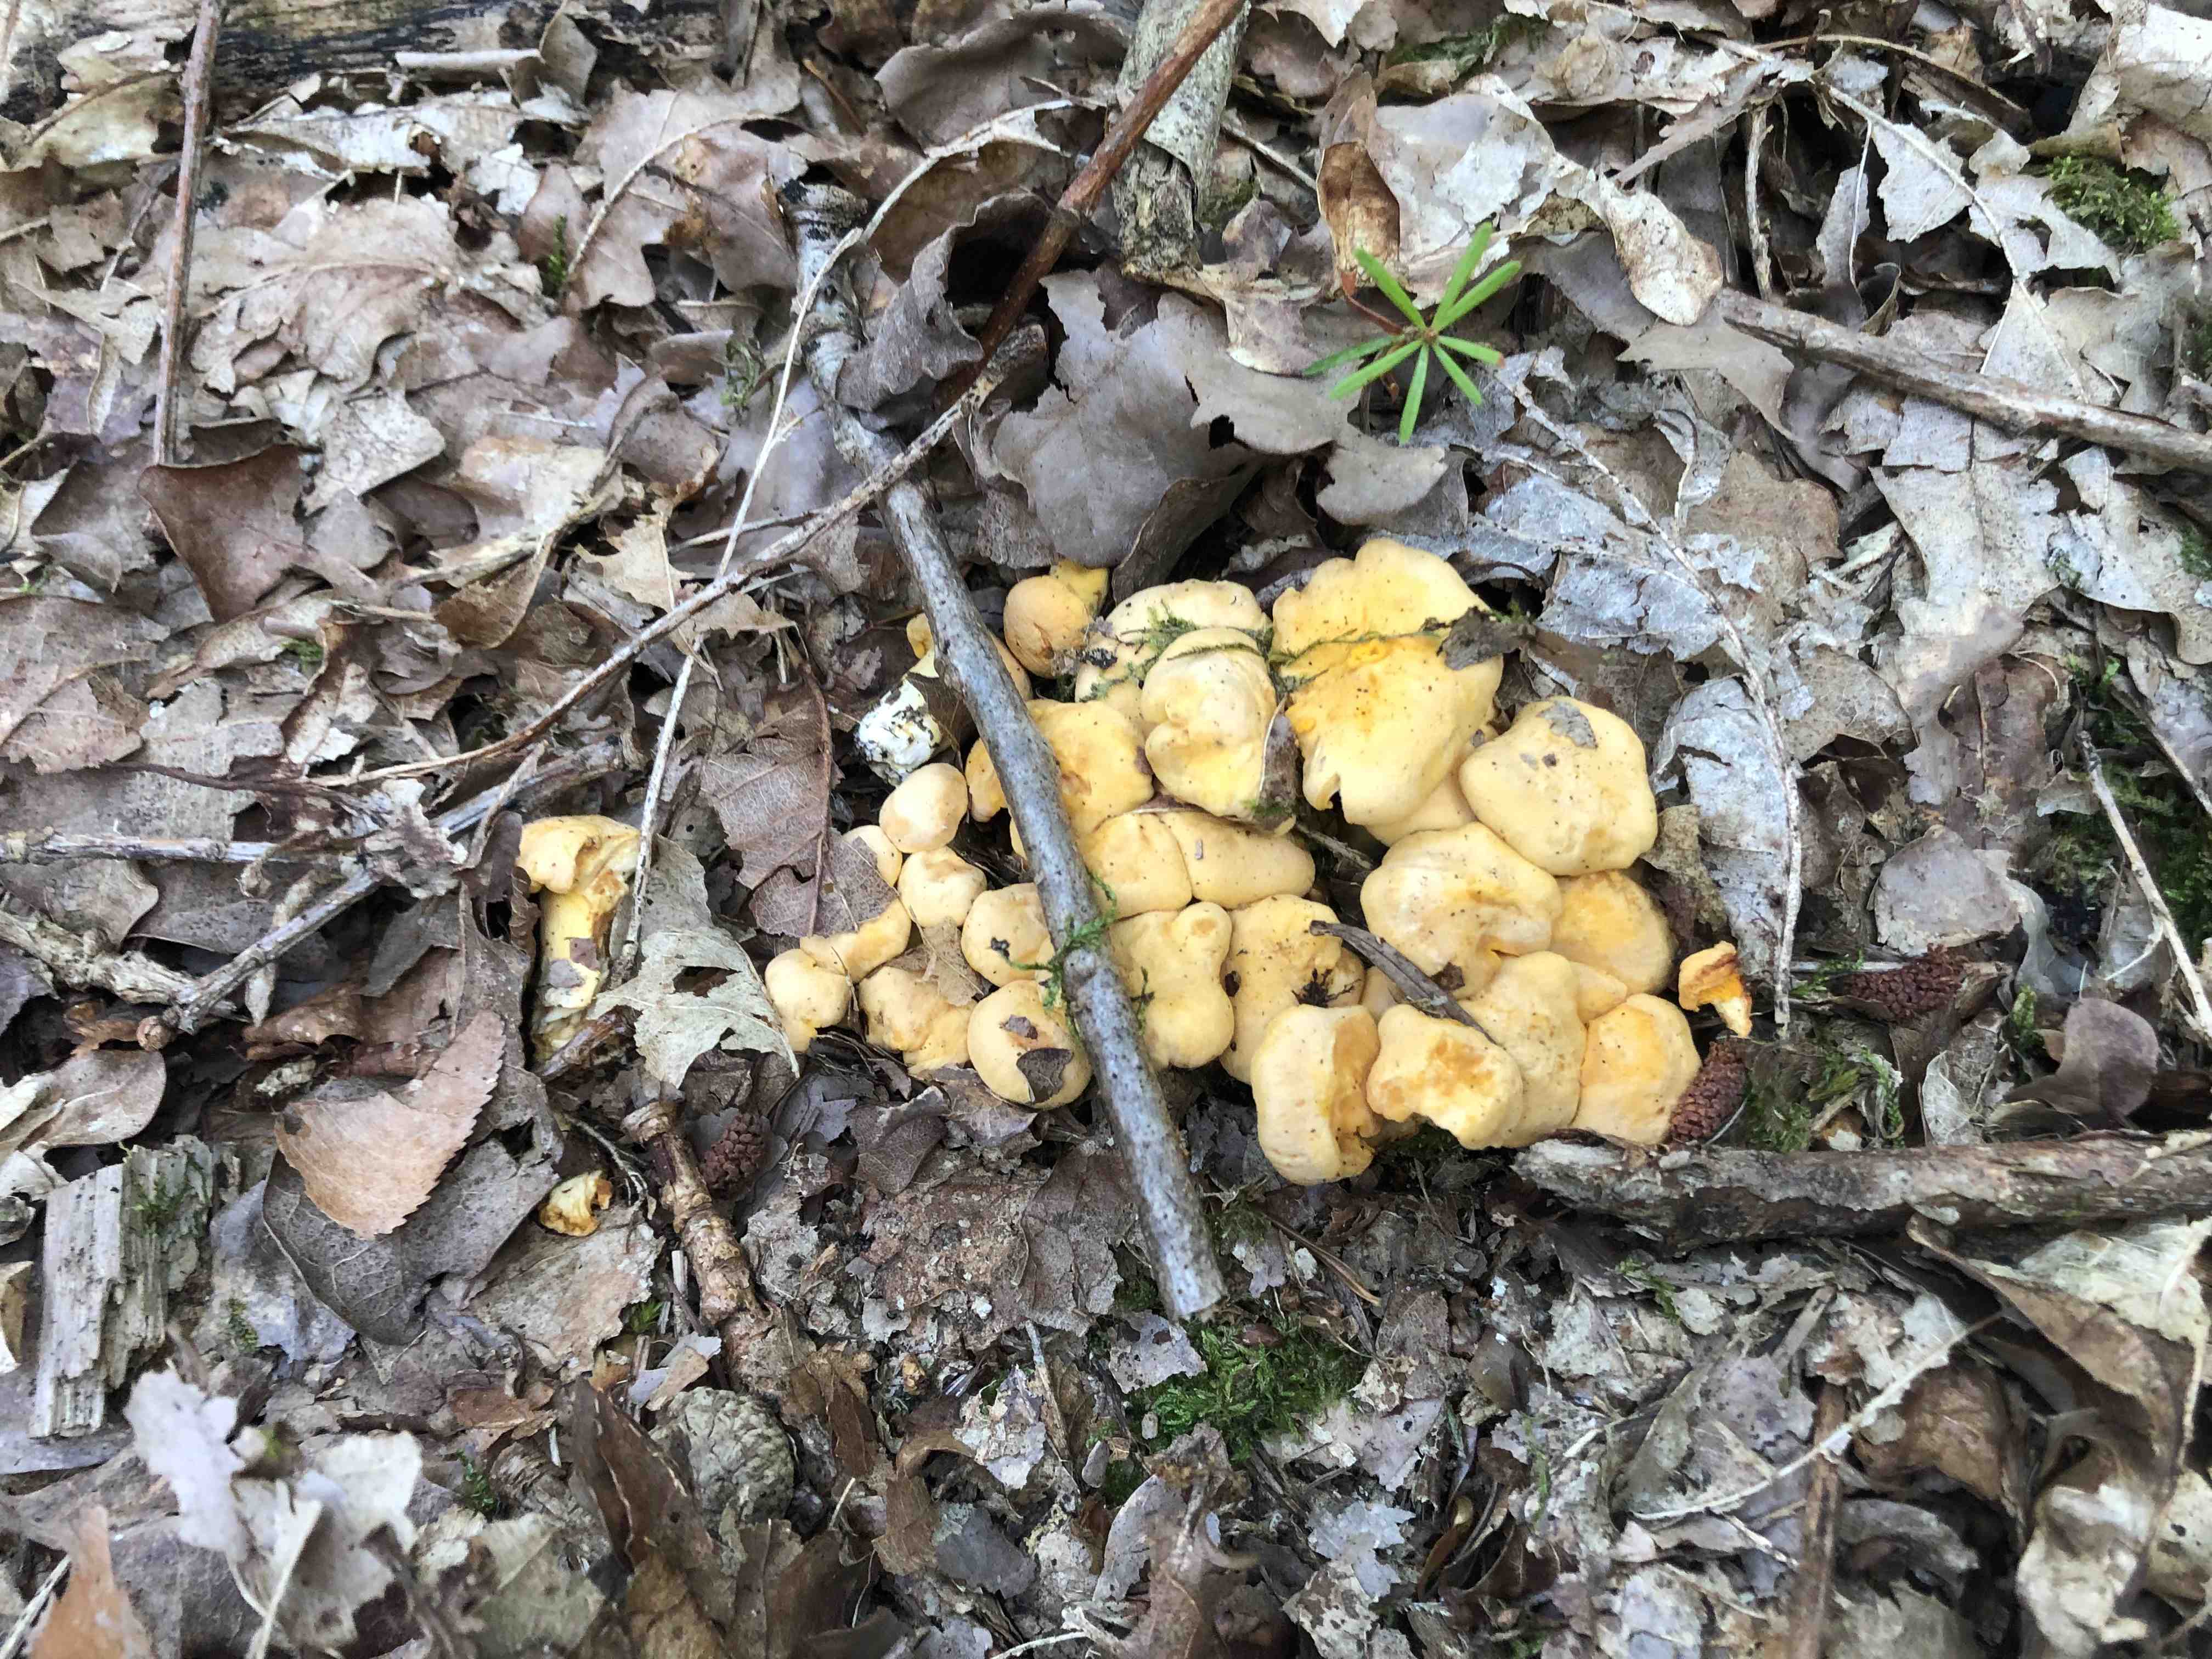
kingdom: Fungi
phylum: Basidiomycota
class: Agaricomycetes
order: Cantharellales
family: Hydnaceae
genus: Cantharellus
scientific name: Cantharellus pallens
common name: bleg kantarel
